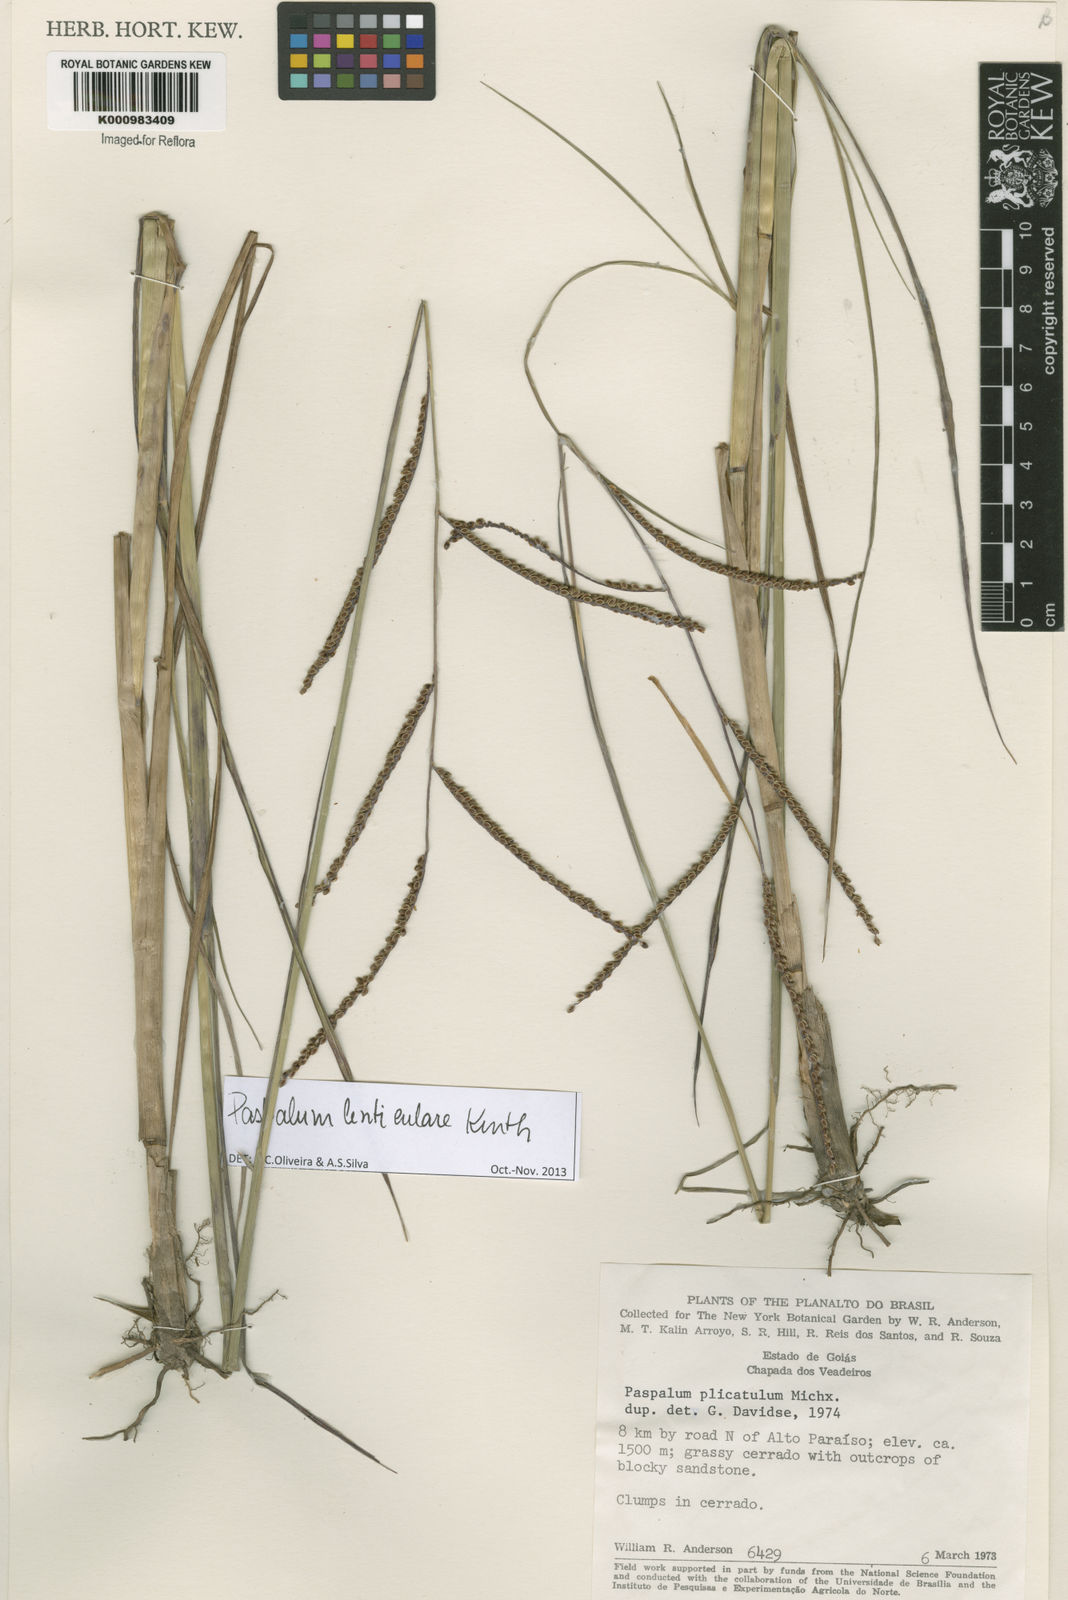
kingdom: Plantae
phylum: Tracheophyta
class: Liliopsida
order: Poales
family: Poaceae
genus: Paspalum
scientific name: Paspalum plicatulum
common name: Top paspalum
